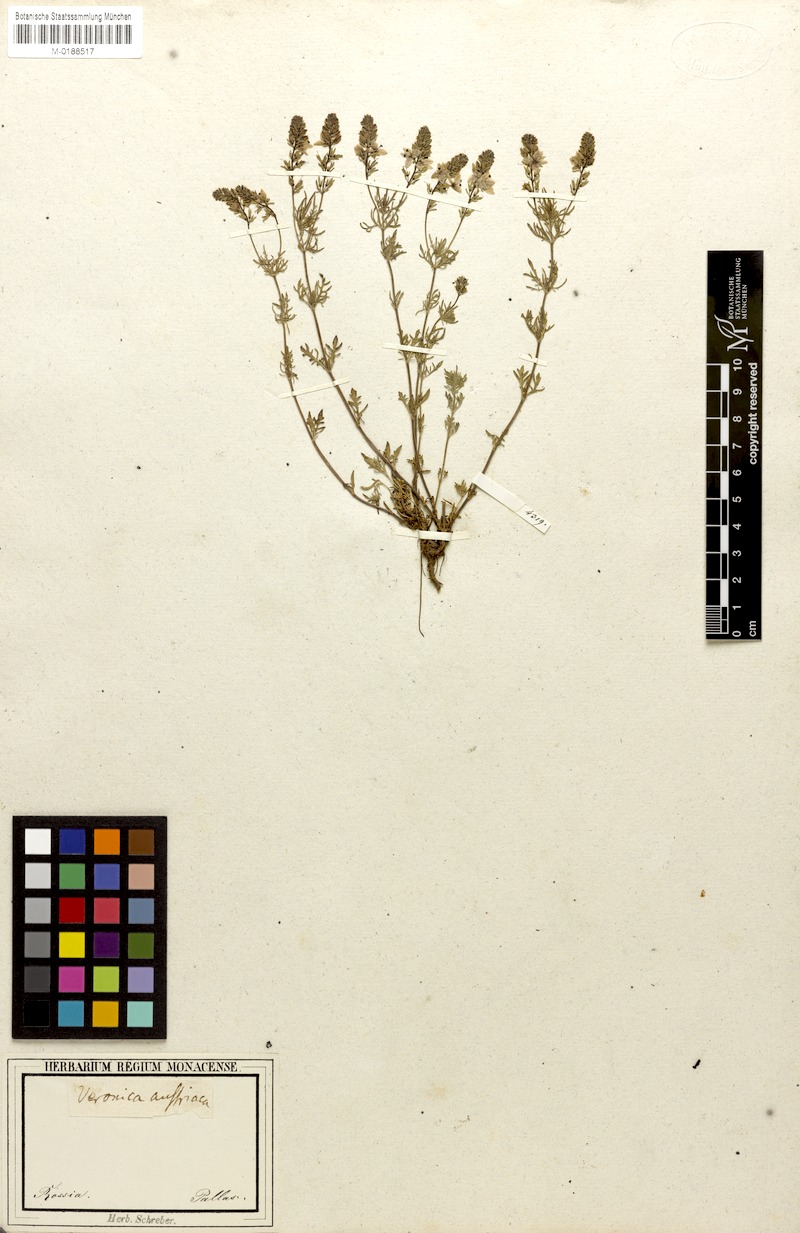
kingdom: Plantae
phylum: Tracheophyta
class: Magnoliopsida
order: Lamiales
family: Plantaginaceae
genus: Veronica
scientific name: Veronica multifida
